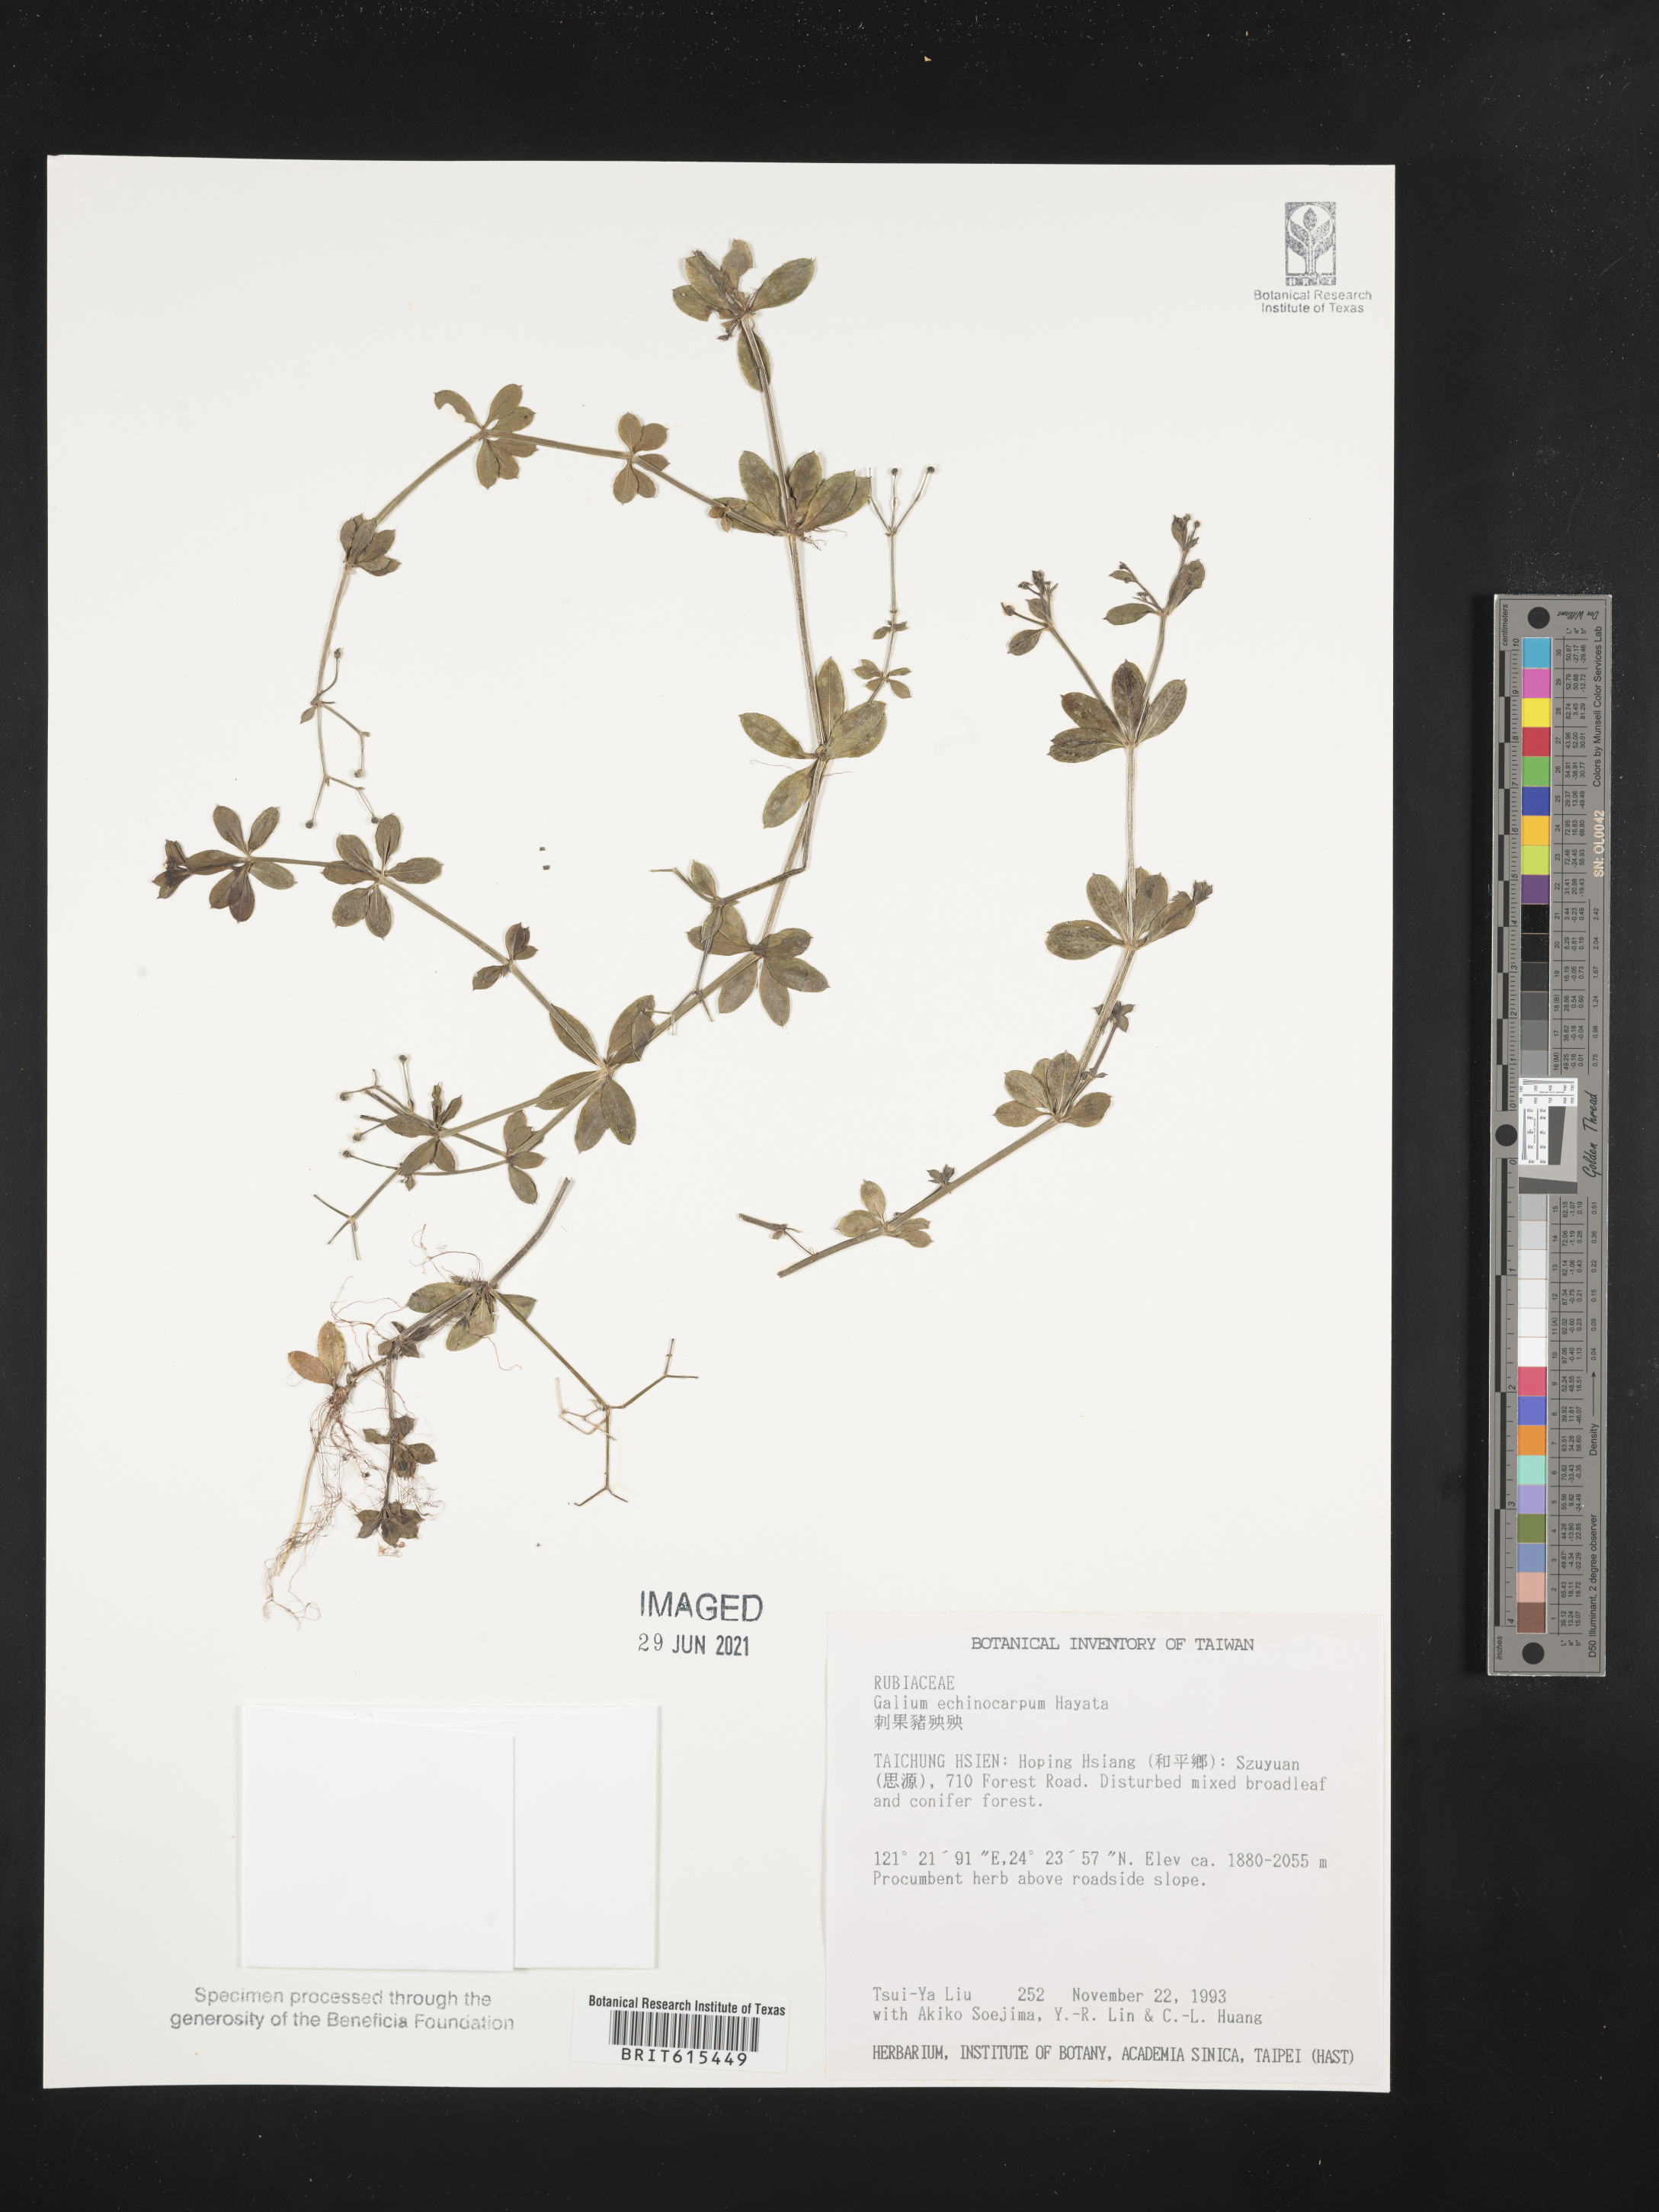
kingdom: Plantae
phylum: Tracheophyta
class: Magnoliopsida
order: Gentianales
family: Rubiaceae
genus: Galium
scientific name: Galium echinocarpum
